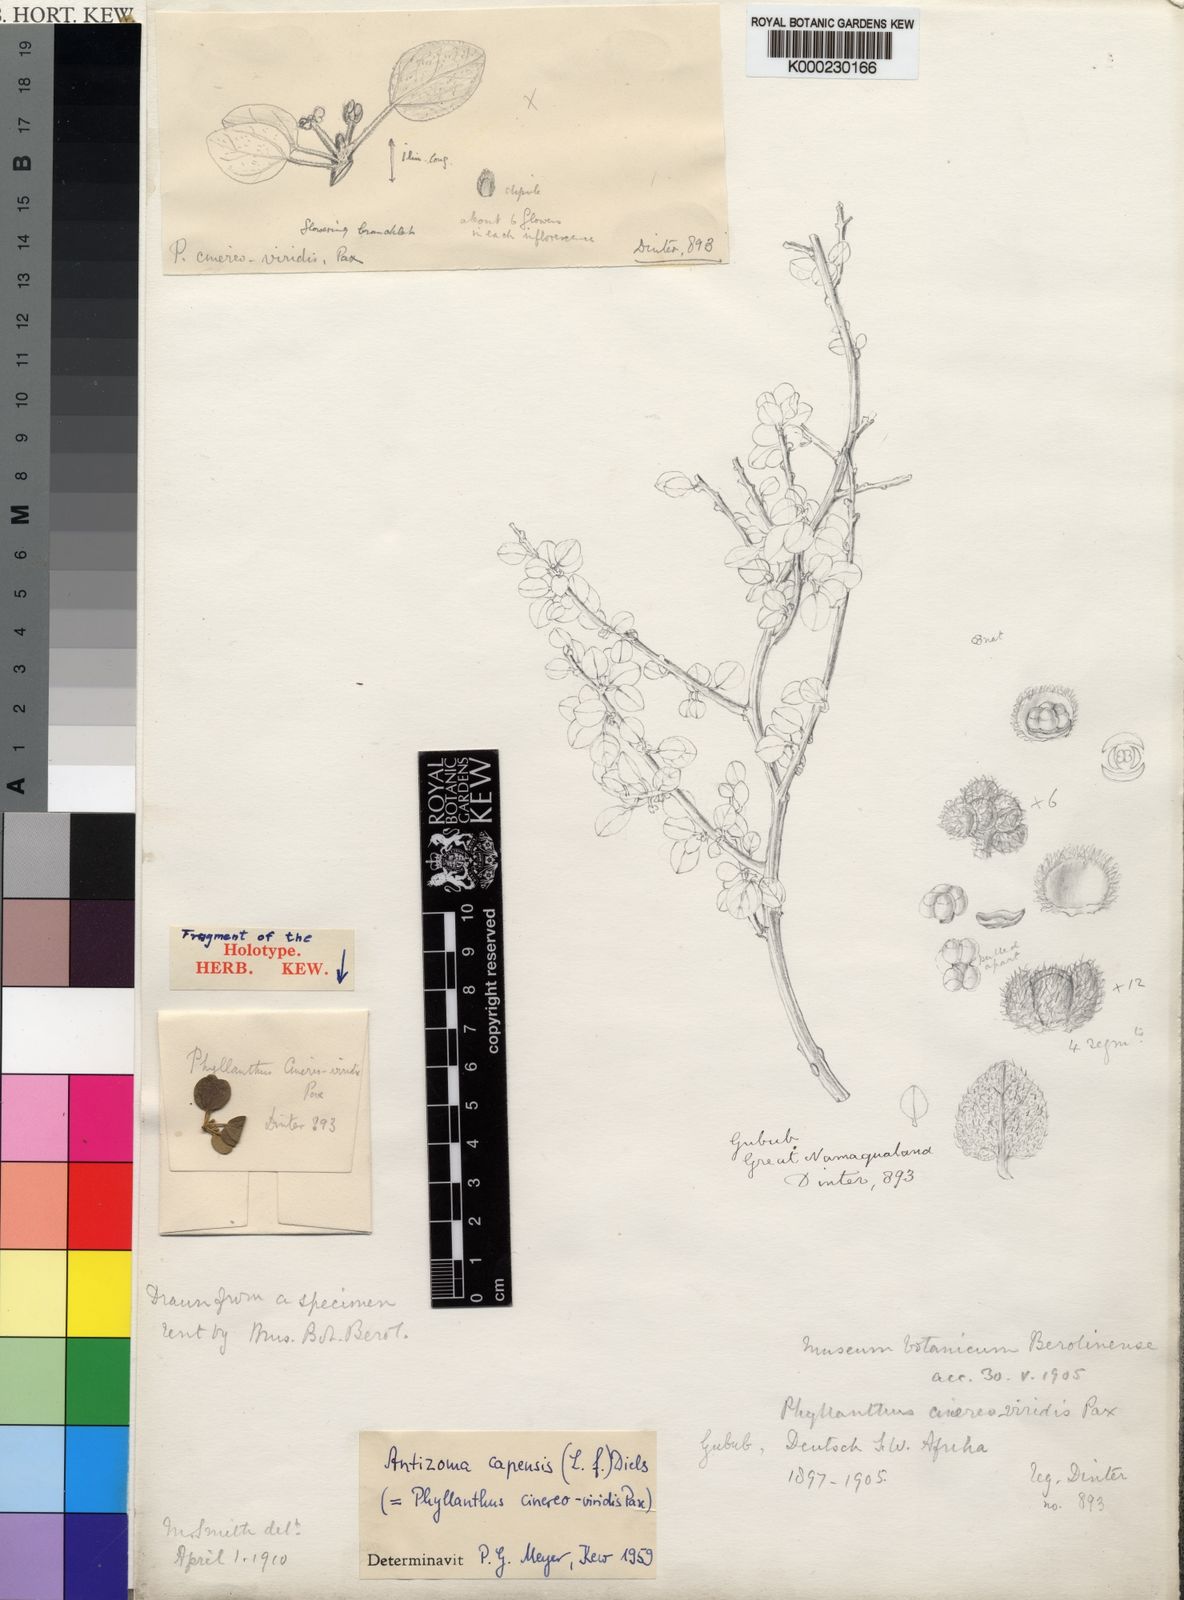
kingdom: Plantae
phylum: Tracheophyta
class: Magnoliopsida
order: Ranunculales
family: Menispermaceae
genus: Cissampelos
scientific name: Cissampelos capensis
